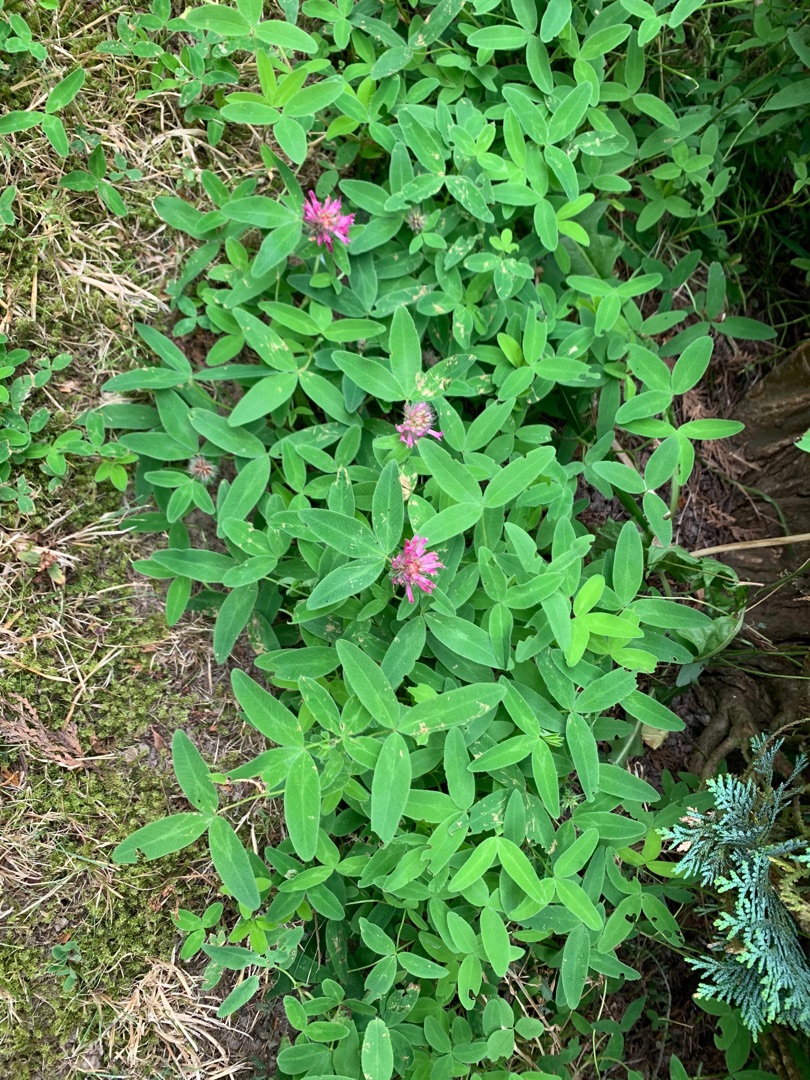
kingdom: Plantae
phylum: Tracheophyta
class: Magnoliopsida
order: Fabales
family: Fabaceae
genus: Trifolium
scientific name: Trifolium medium
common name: Bugtet kløver
